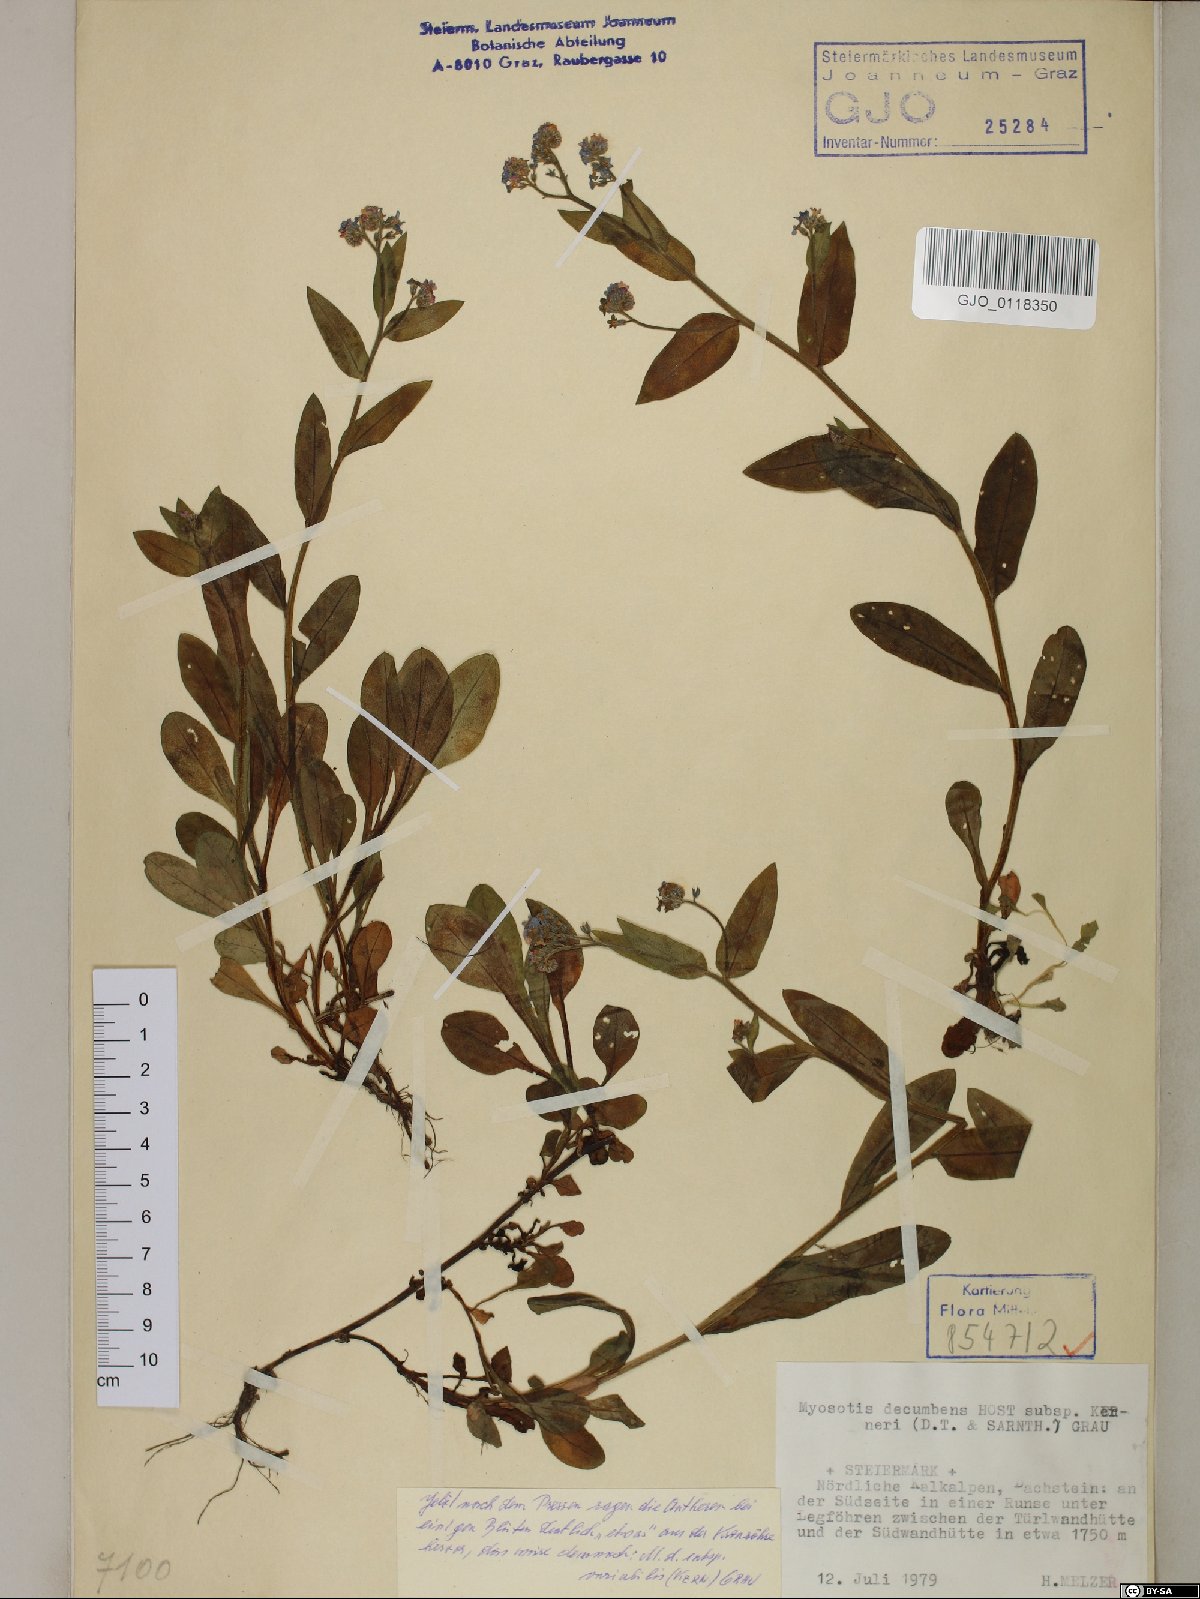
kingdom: Plantae
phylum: Tracheophyta
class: Magnoliopsida
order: Boraginales
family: Boraginaceae
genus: Myosotis
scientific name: Myosotis decumbens
